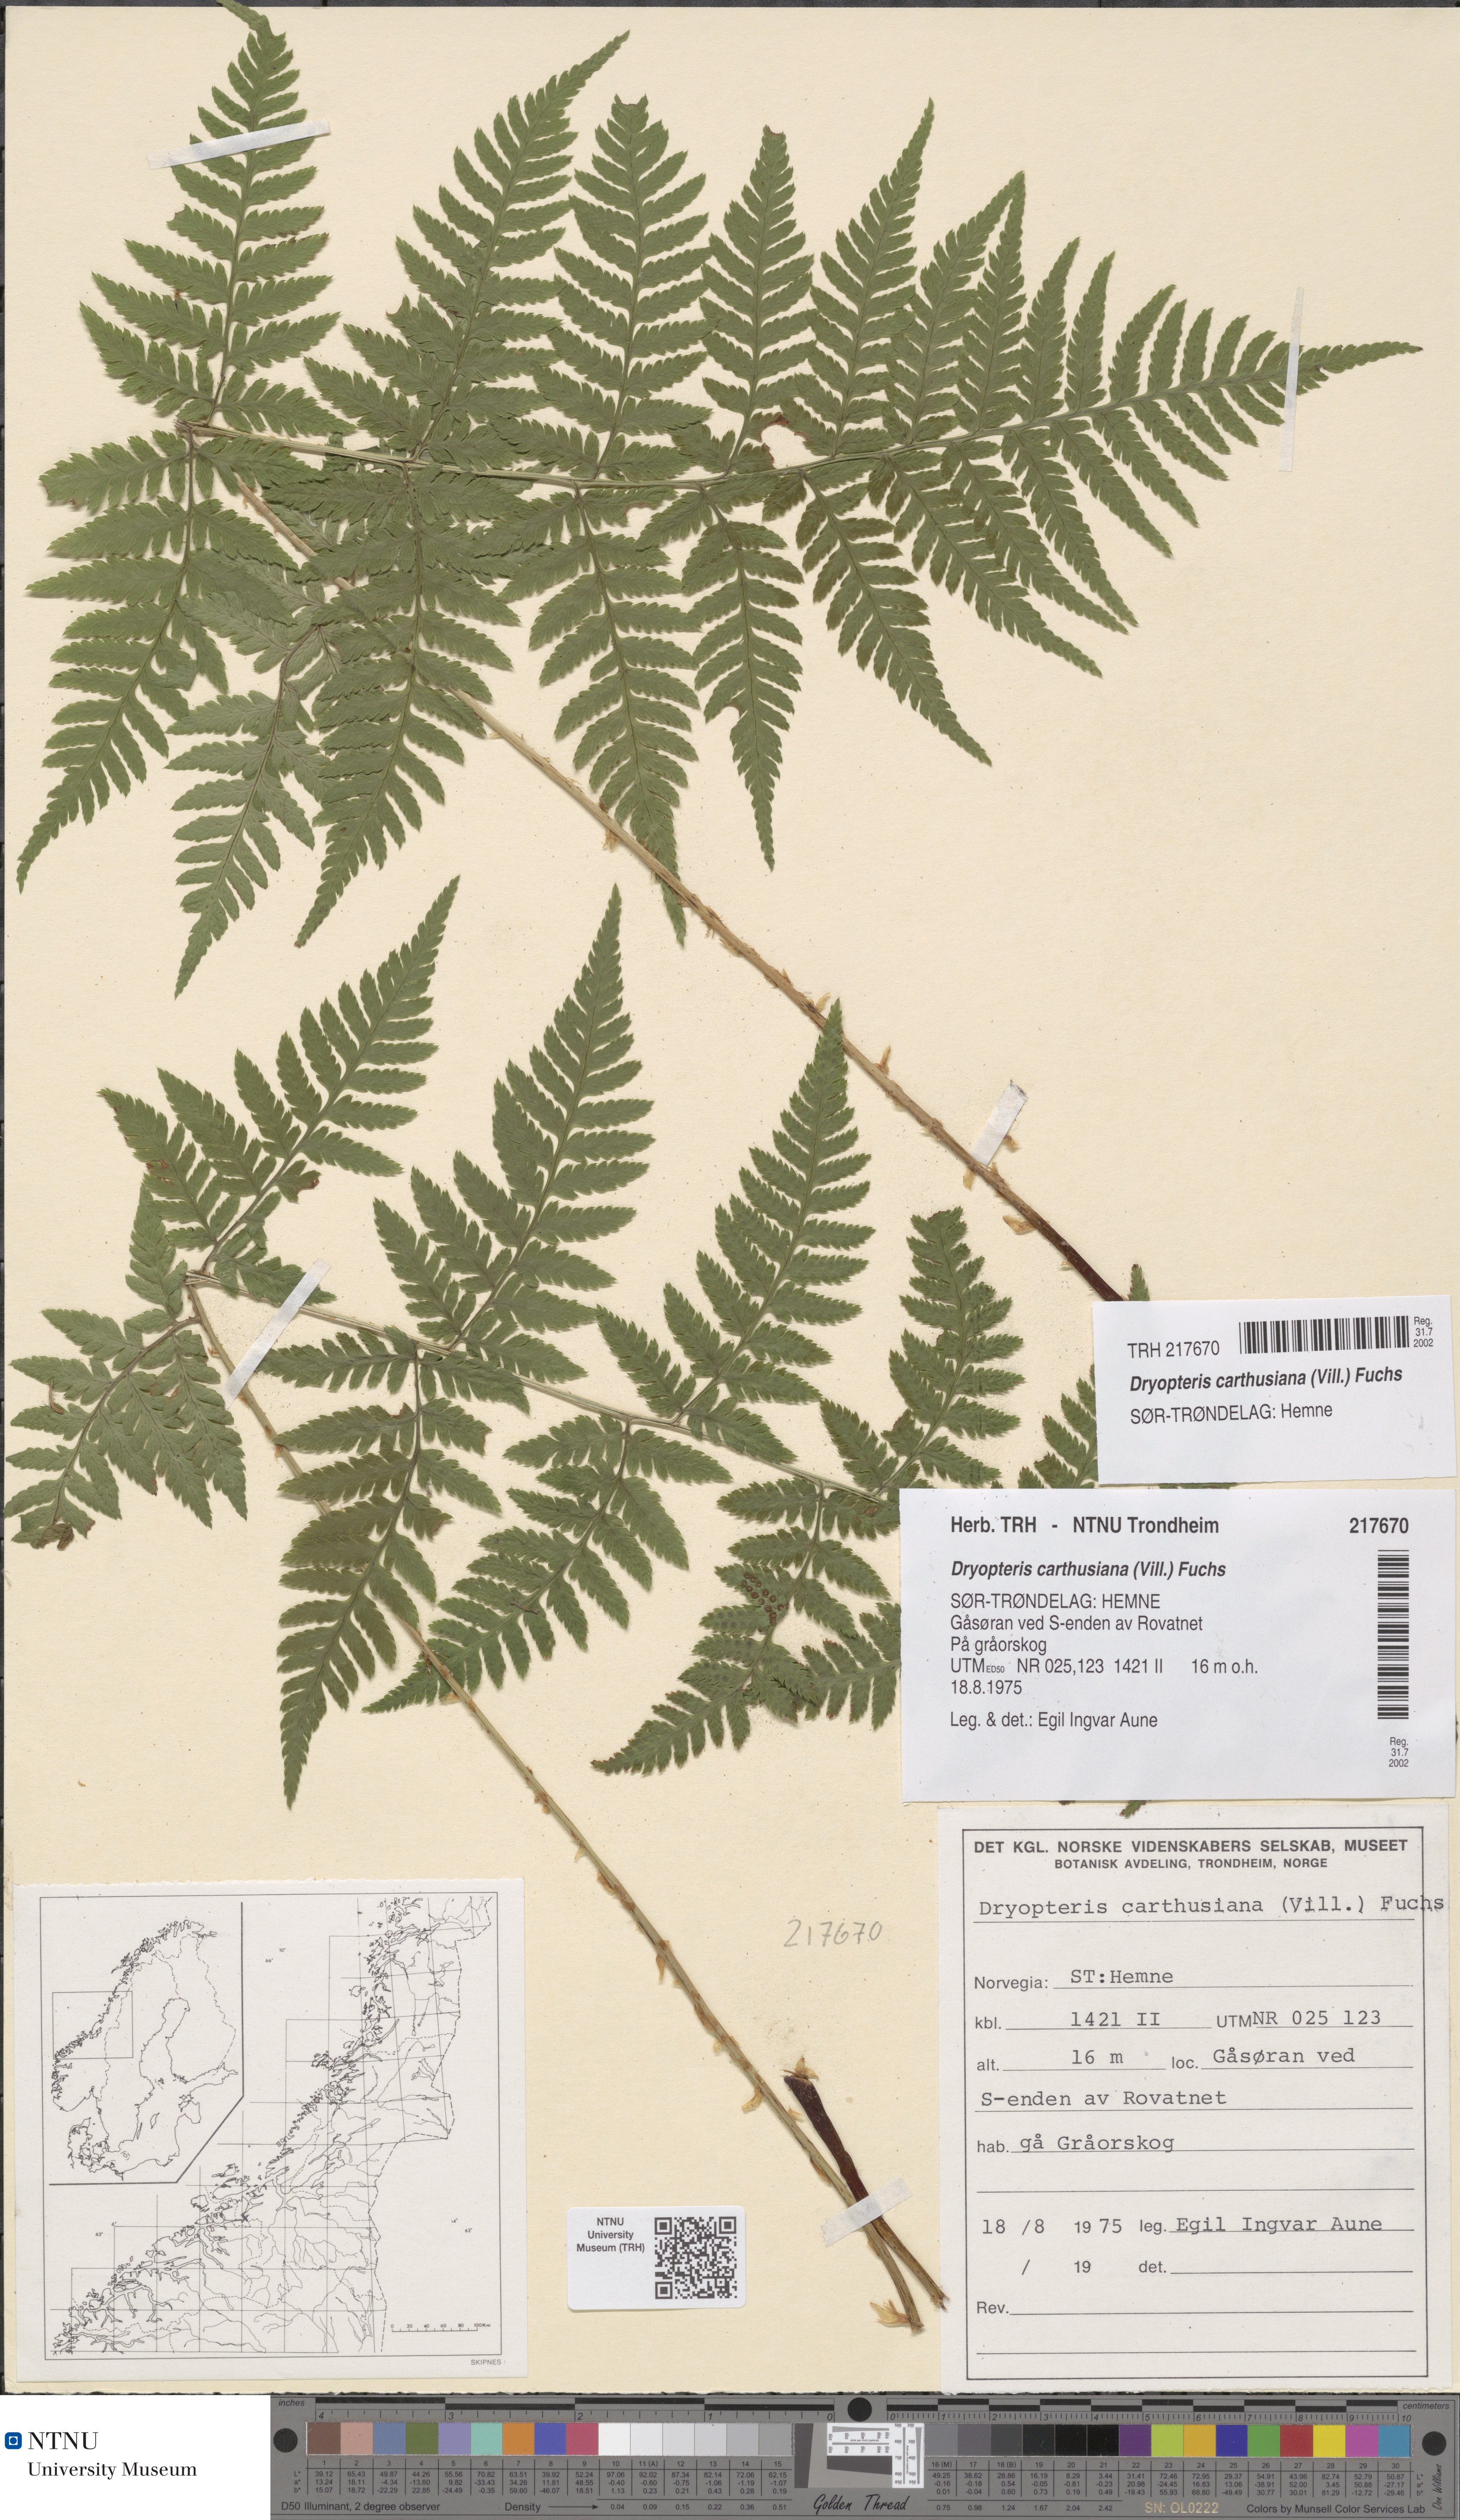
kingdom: Plantae
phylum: Tracheophyta
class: Polypodiopsida
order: Polypodiales
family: Dryopteridaceae
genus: Dryopteris
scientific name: Dryopteris carthusiana
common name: Narrow buckler-fern
